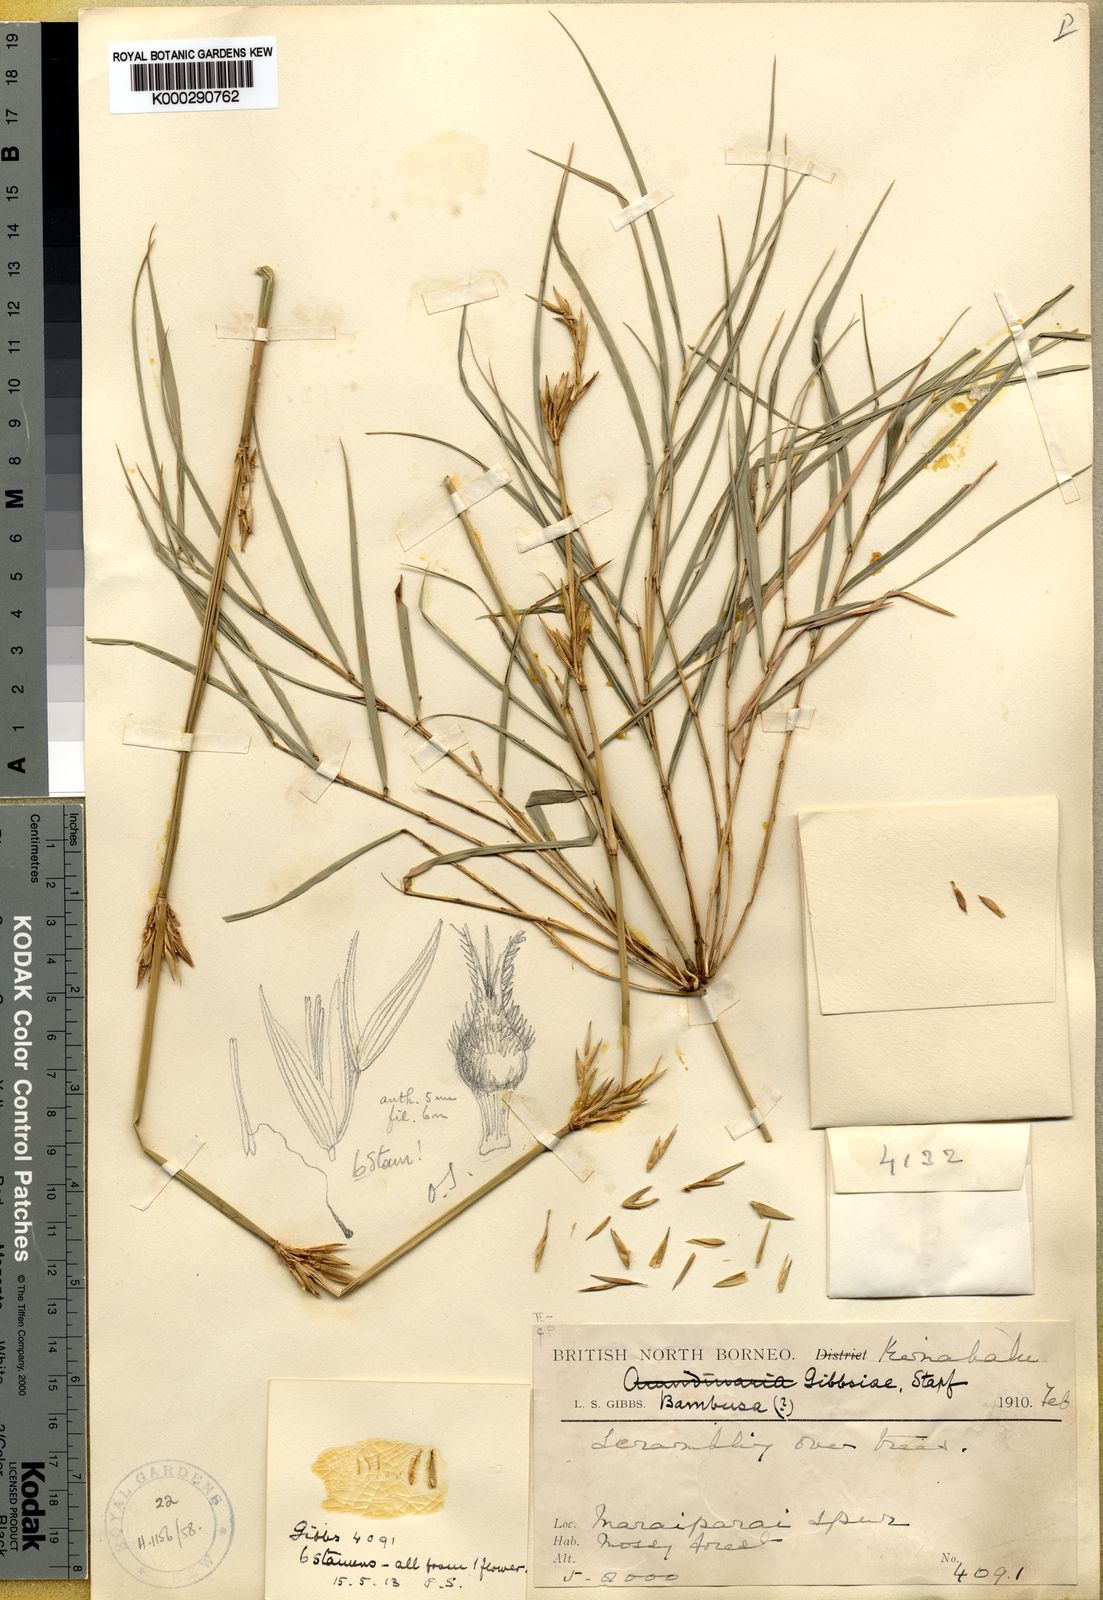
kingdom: Plantae
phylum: Tracheophyta
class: Liliopsida
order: Poales
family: Poaceae
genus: Racemobambos
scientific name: Racemobambos gibbsiae
